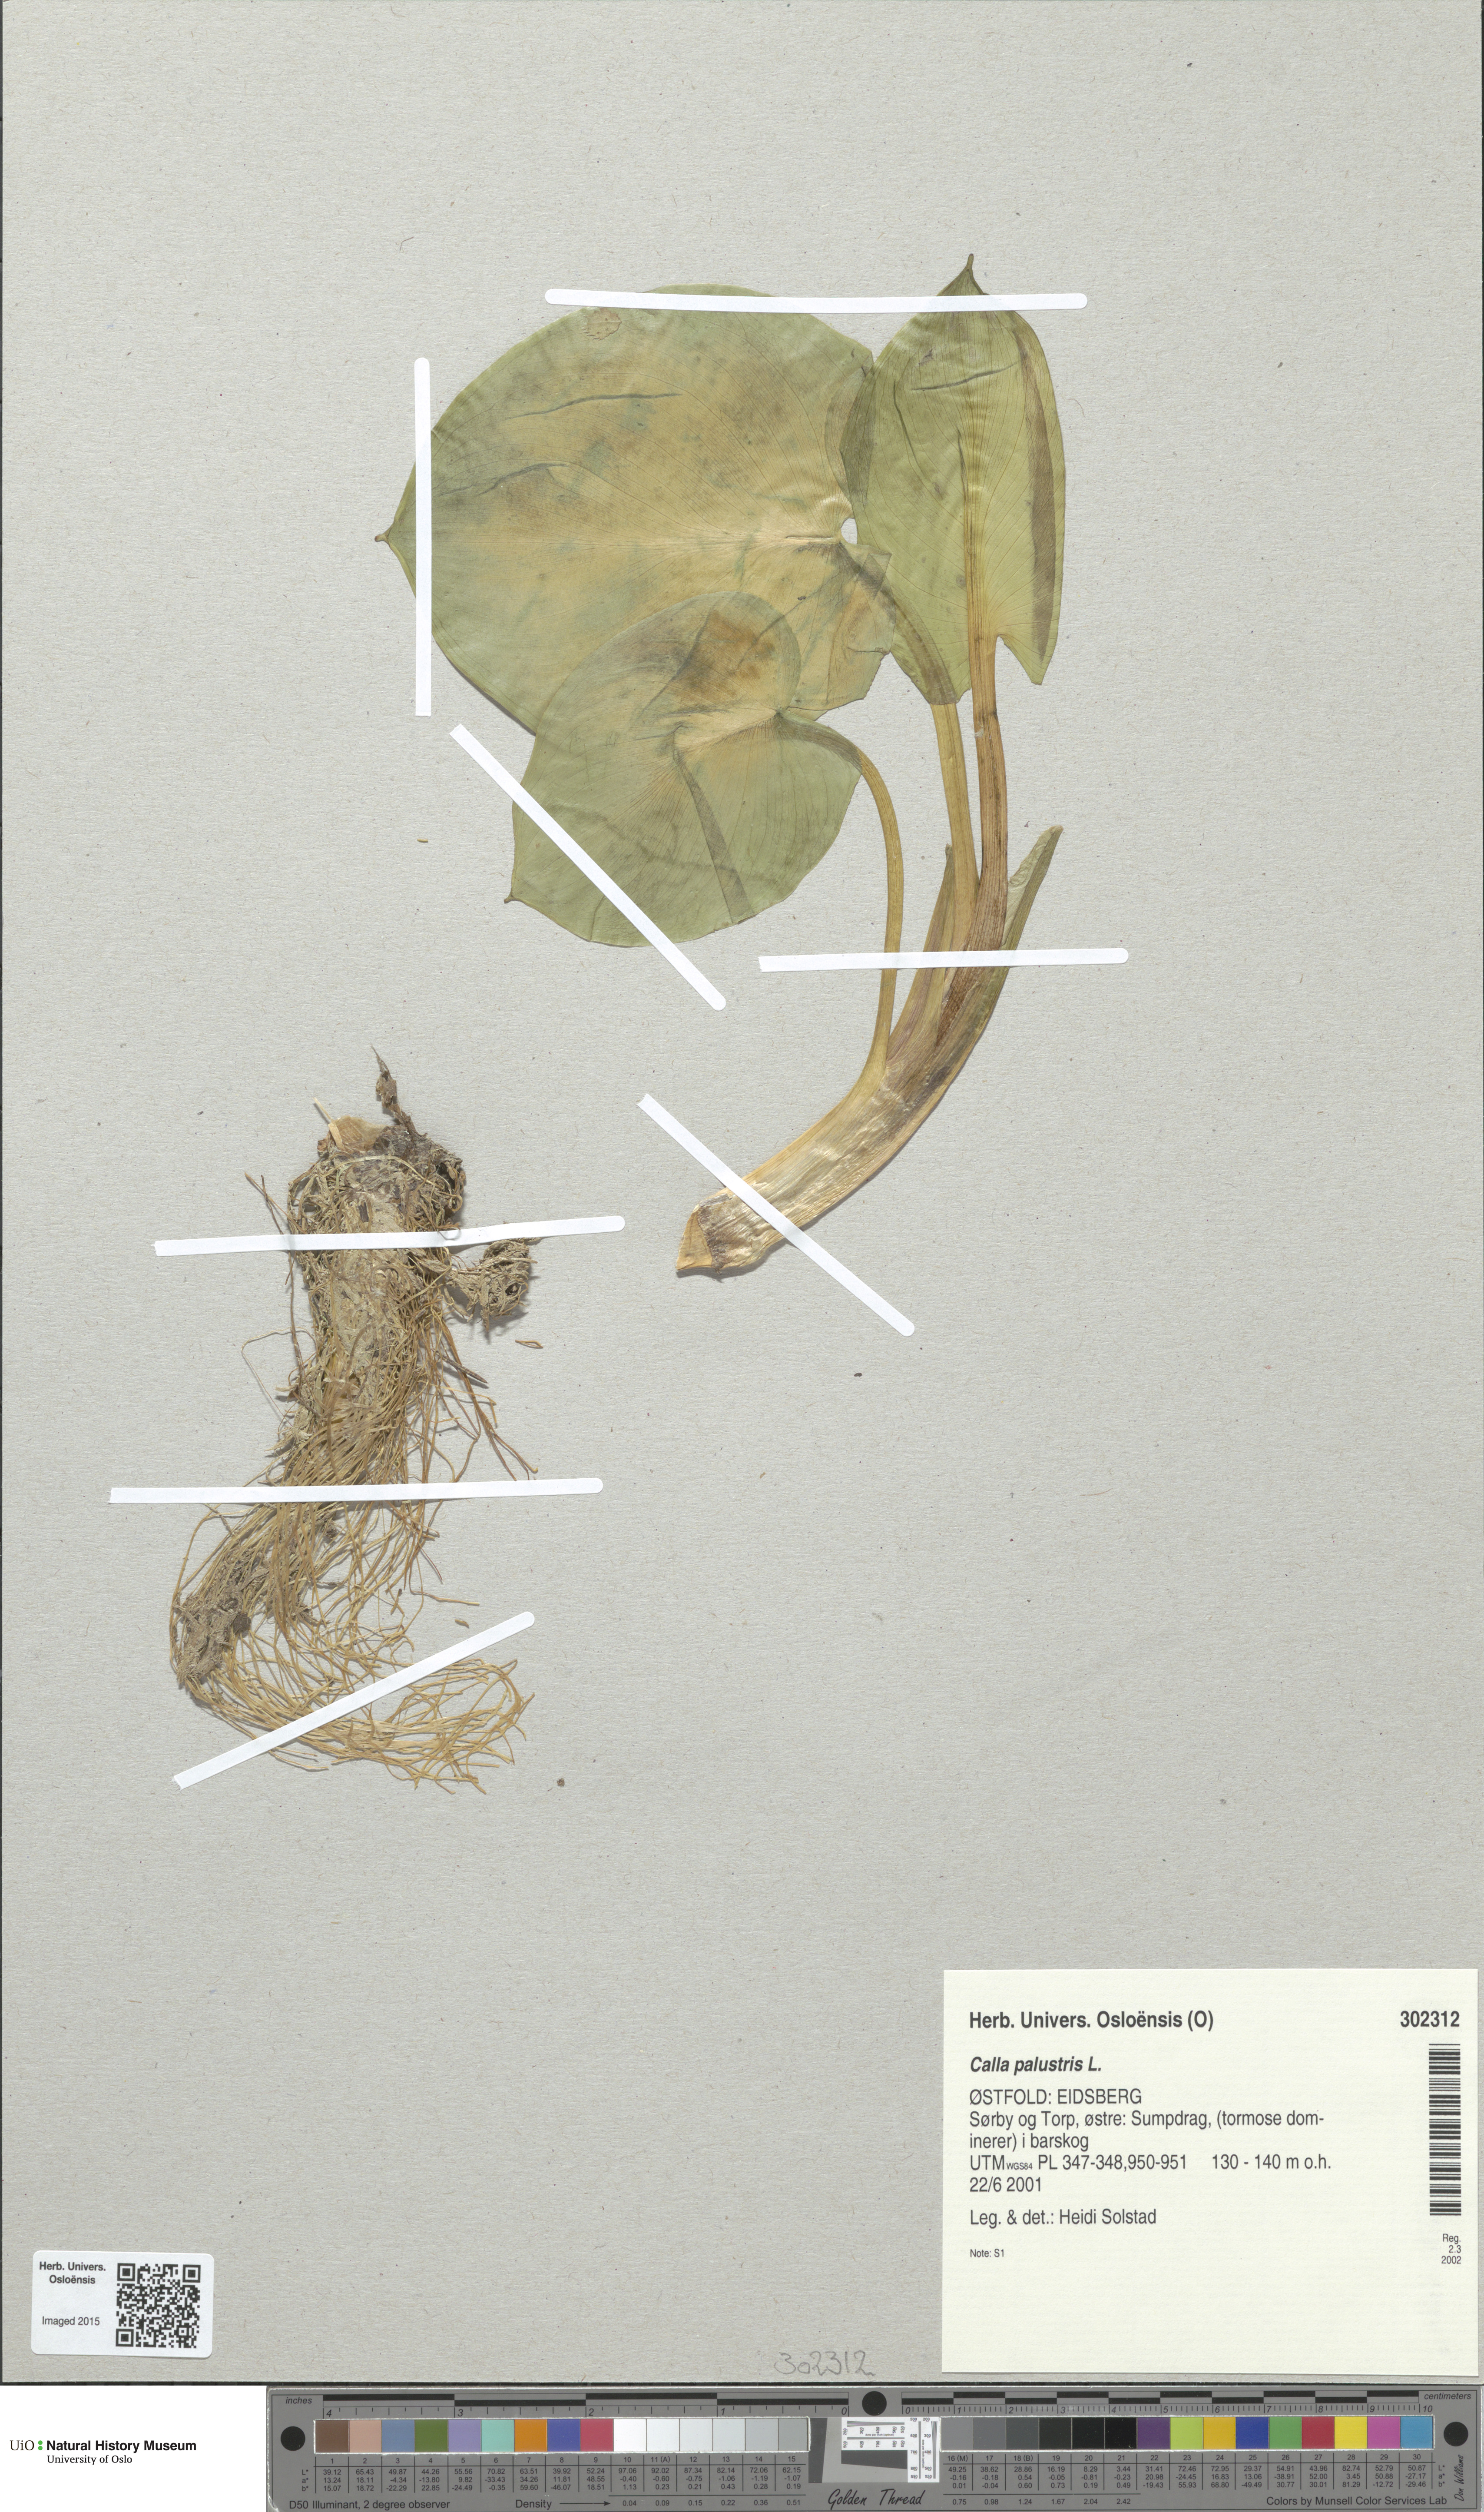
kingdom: Plantae
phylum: Tracheophyta
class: Liliopsida
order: Alismatales
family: Araceae
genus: Calla
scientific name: Calla palustris
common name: Bog arum
